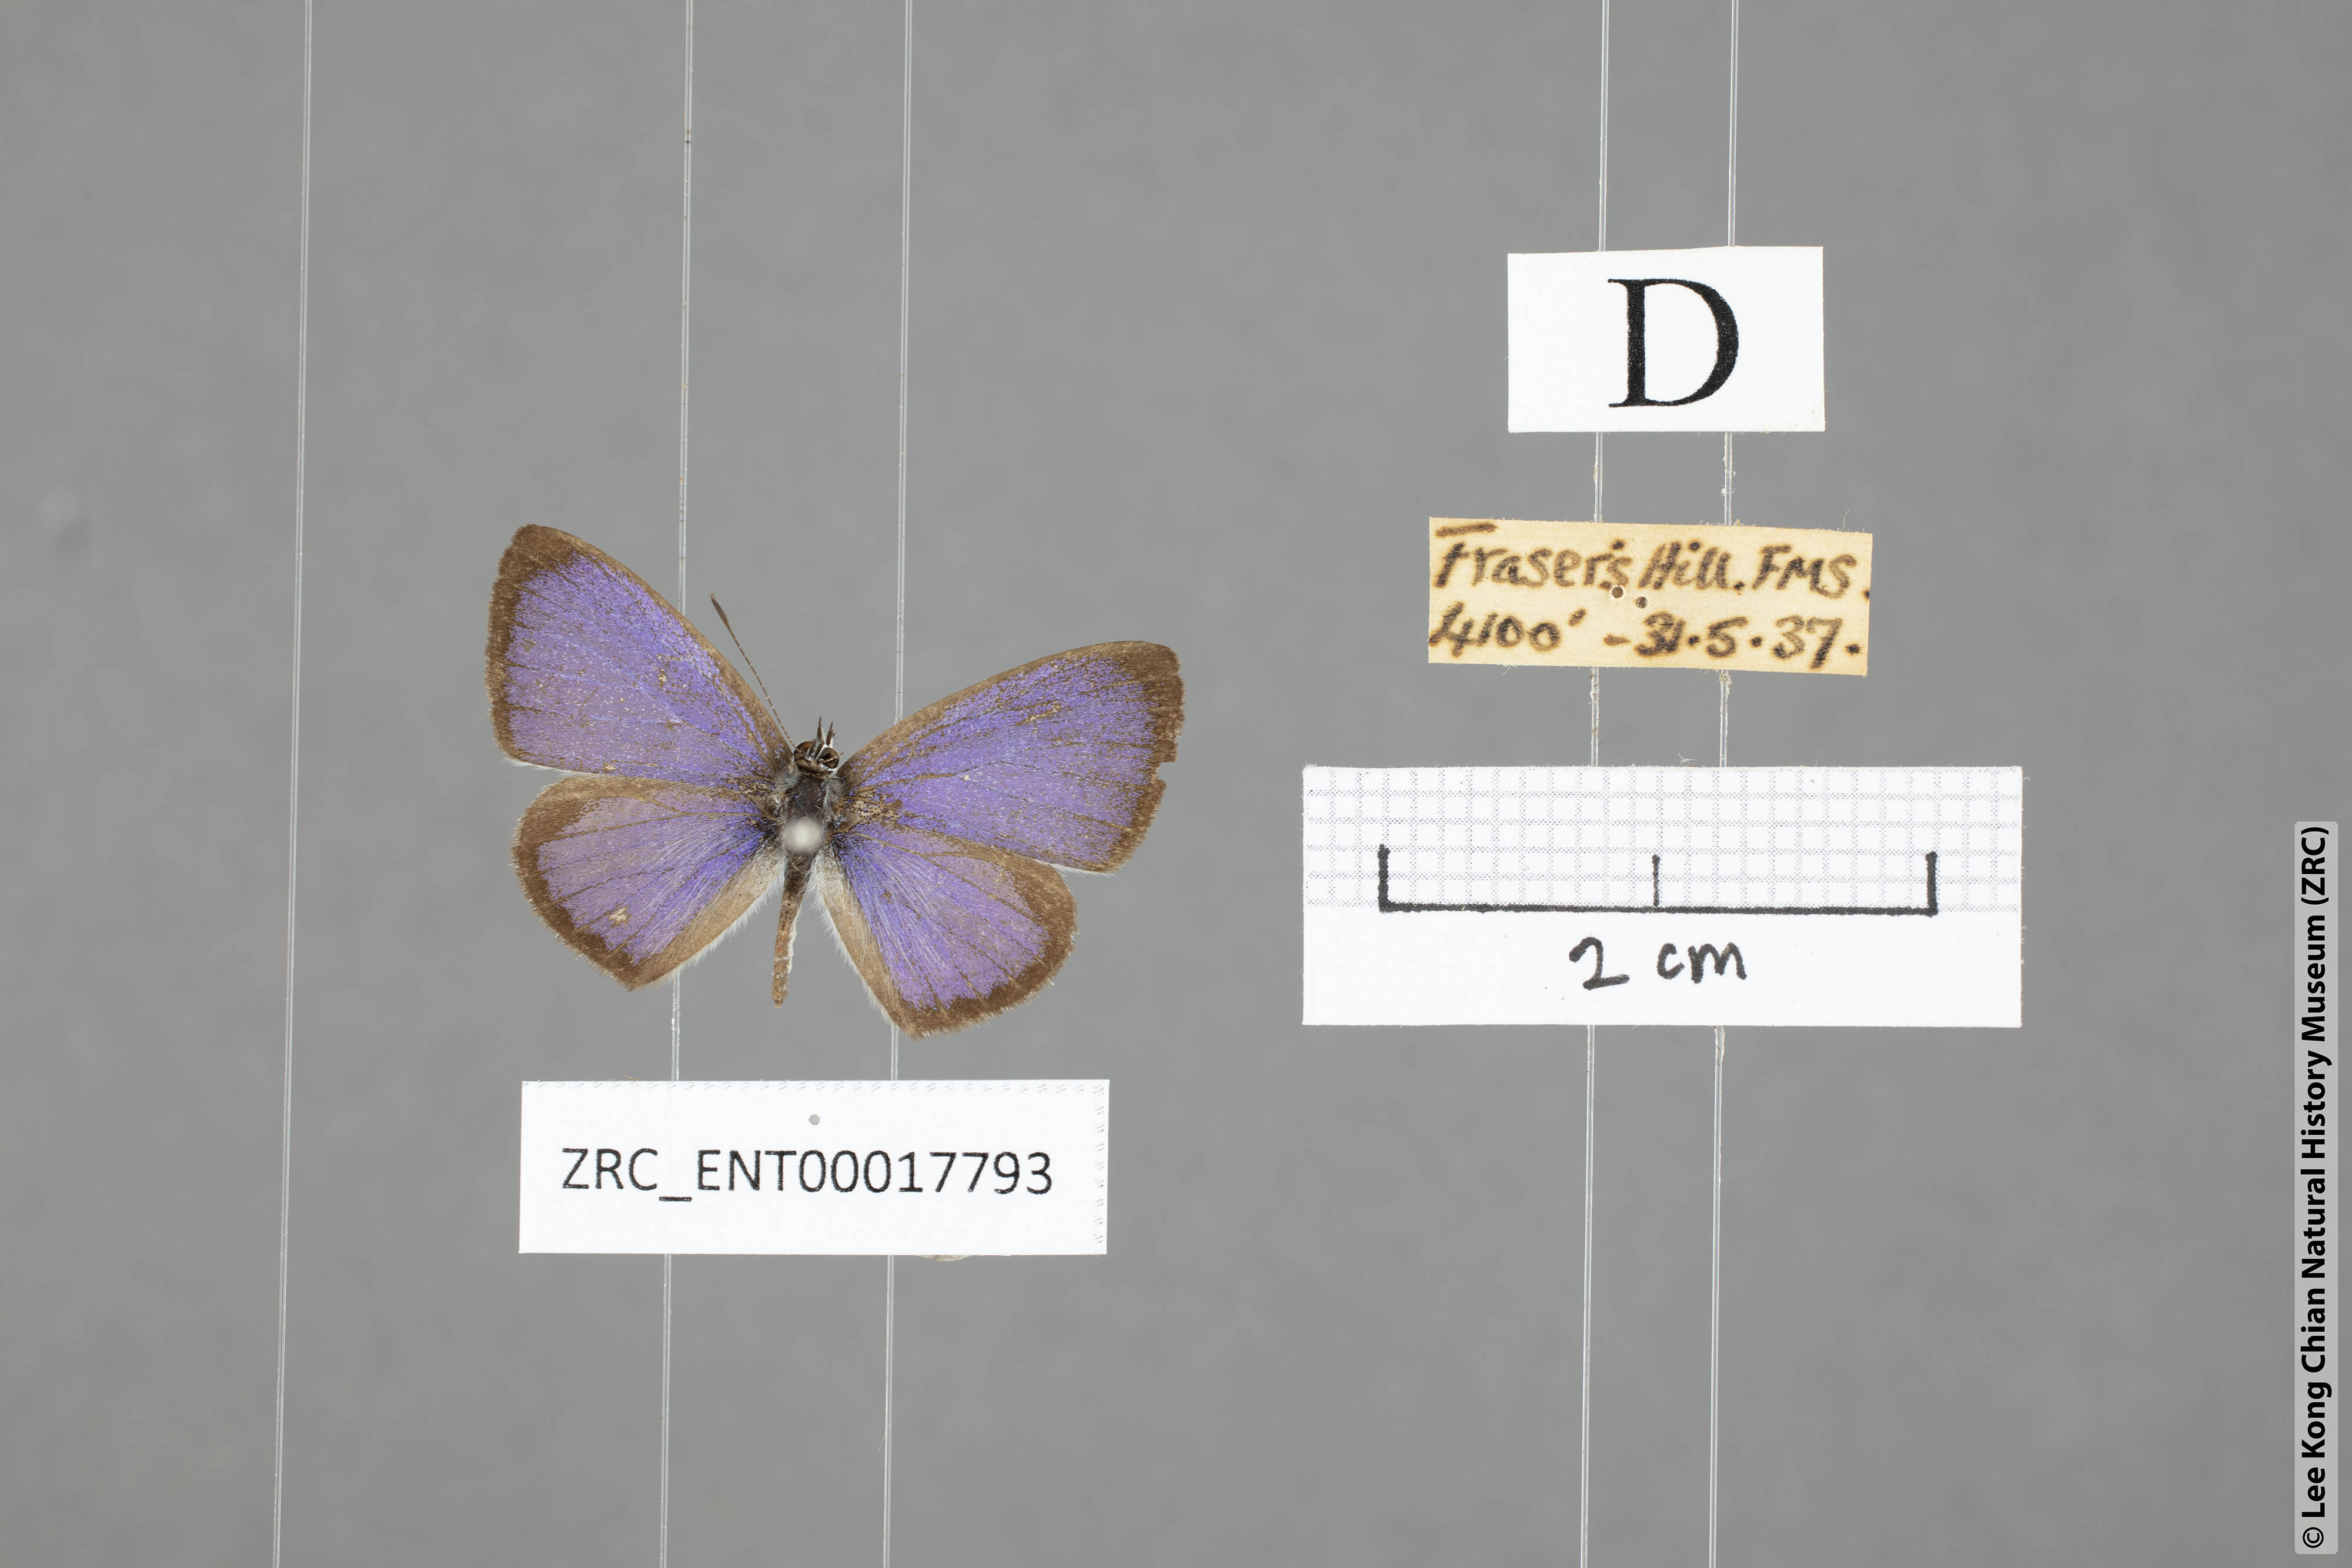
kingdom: Animalia
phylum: Arthropoda
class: Insecta
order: Lepidoptera
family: Lycaenidae
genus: Celastrina
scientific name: Celastrina lavendularis
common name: Plain hedge blue
